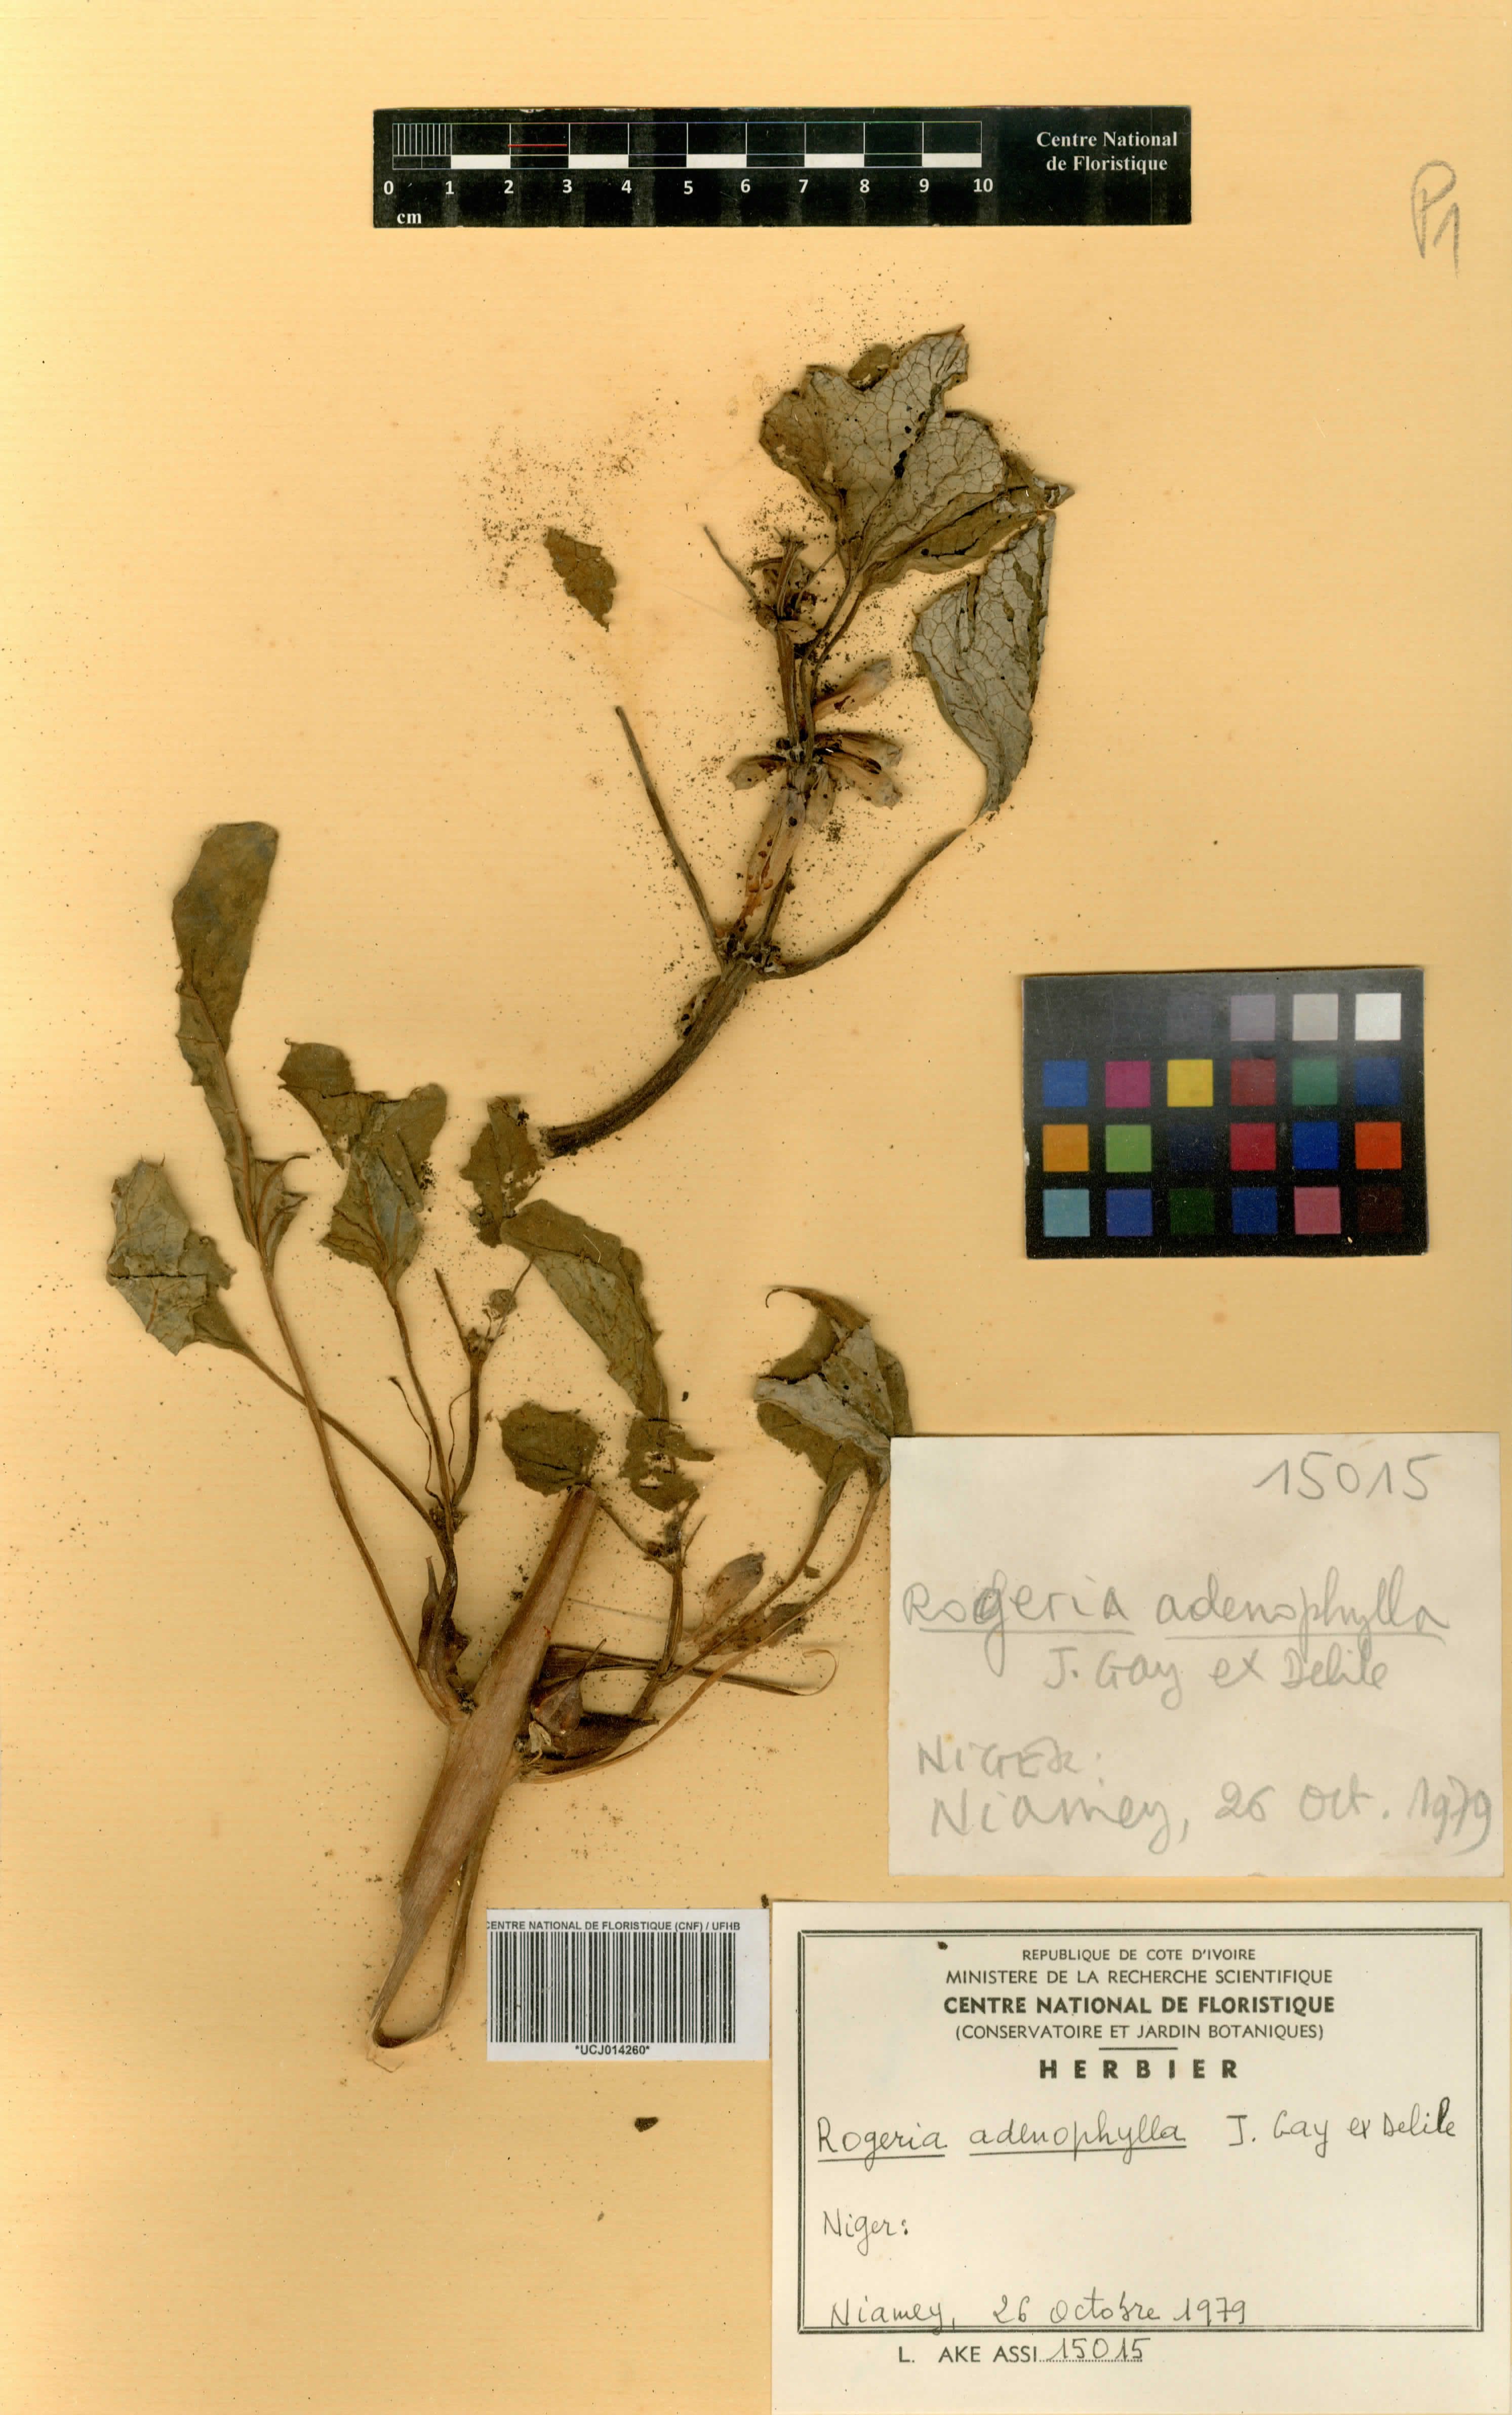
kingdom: Plantae
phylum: Tracheophyta
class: Magnoliopsida
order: Lamiales
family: Pedaliaceae
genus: Rogeria
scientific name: Rogeria adenophylla
